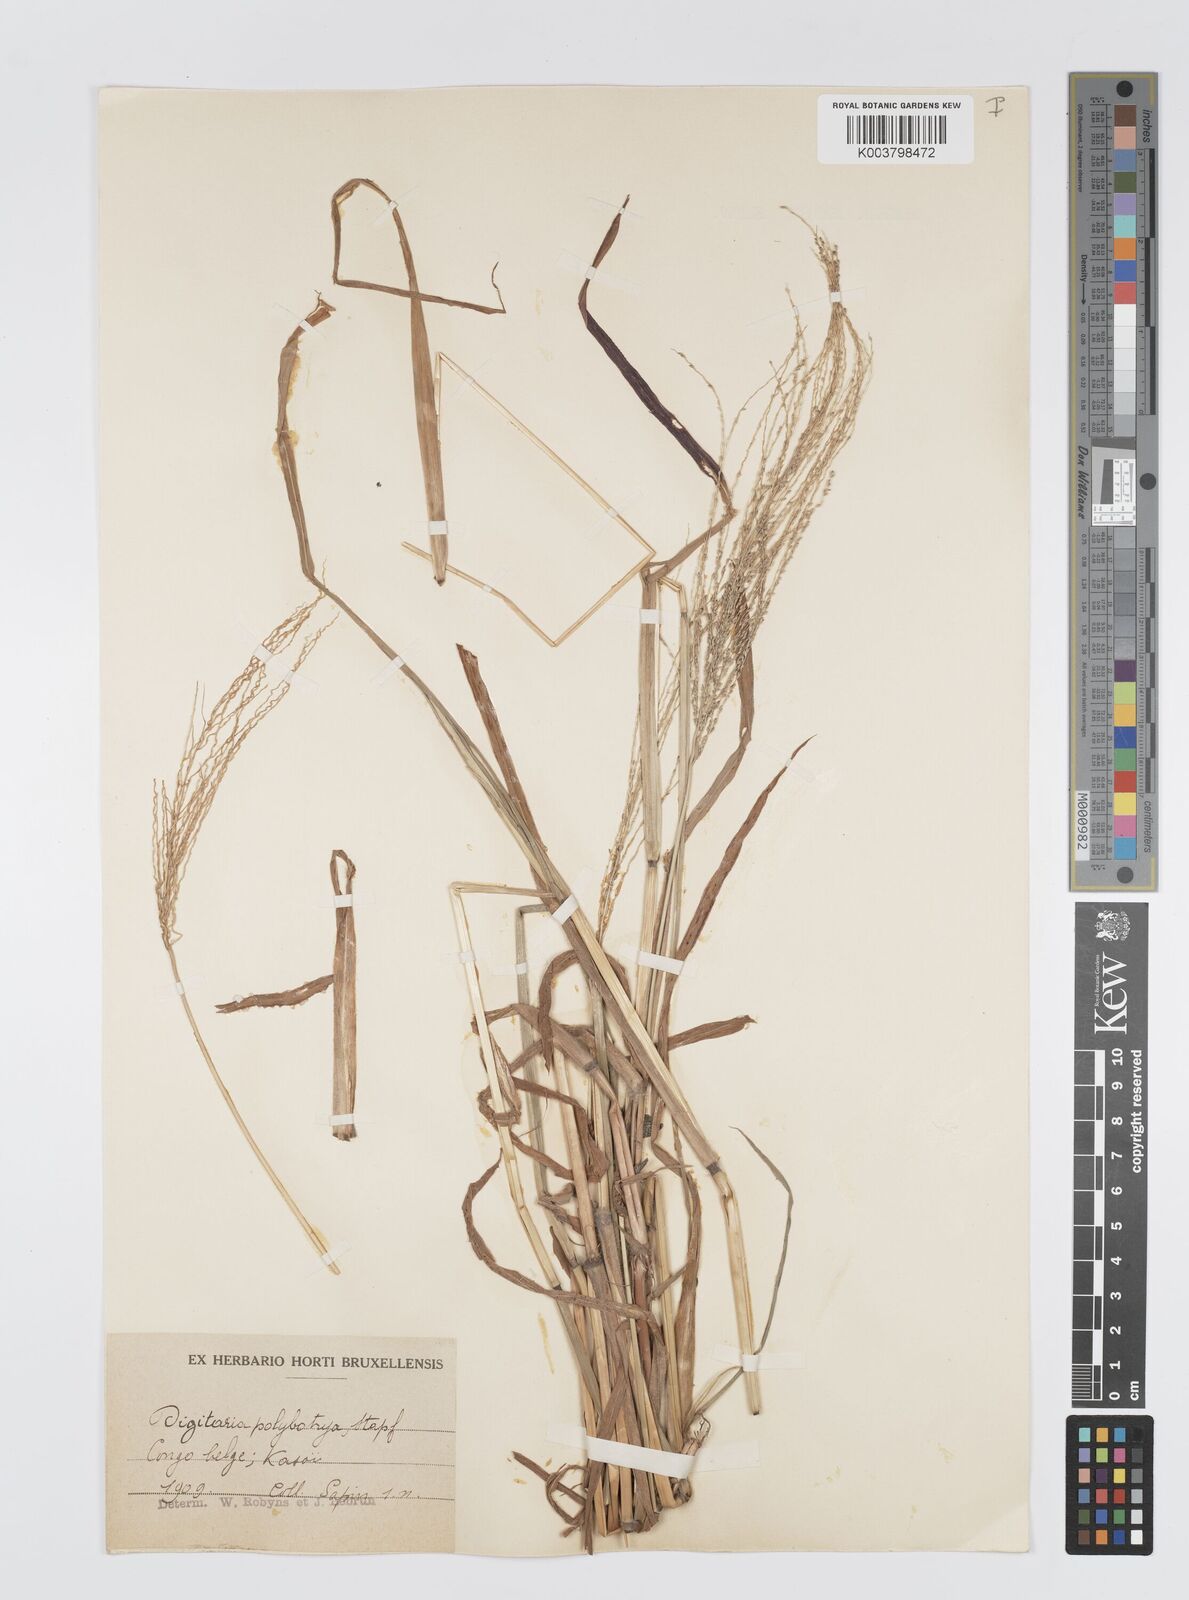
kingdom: Plantae
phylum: Tracheophyta
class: Liliopsida
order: Poales
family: Poaceae
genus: Digitaria
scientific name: Digitaria leptorhachis
